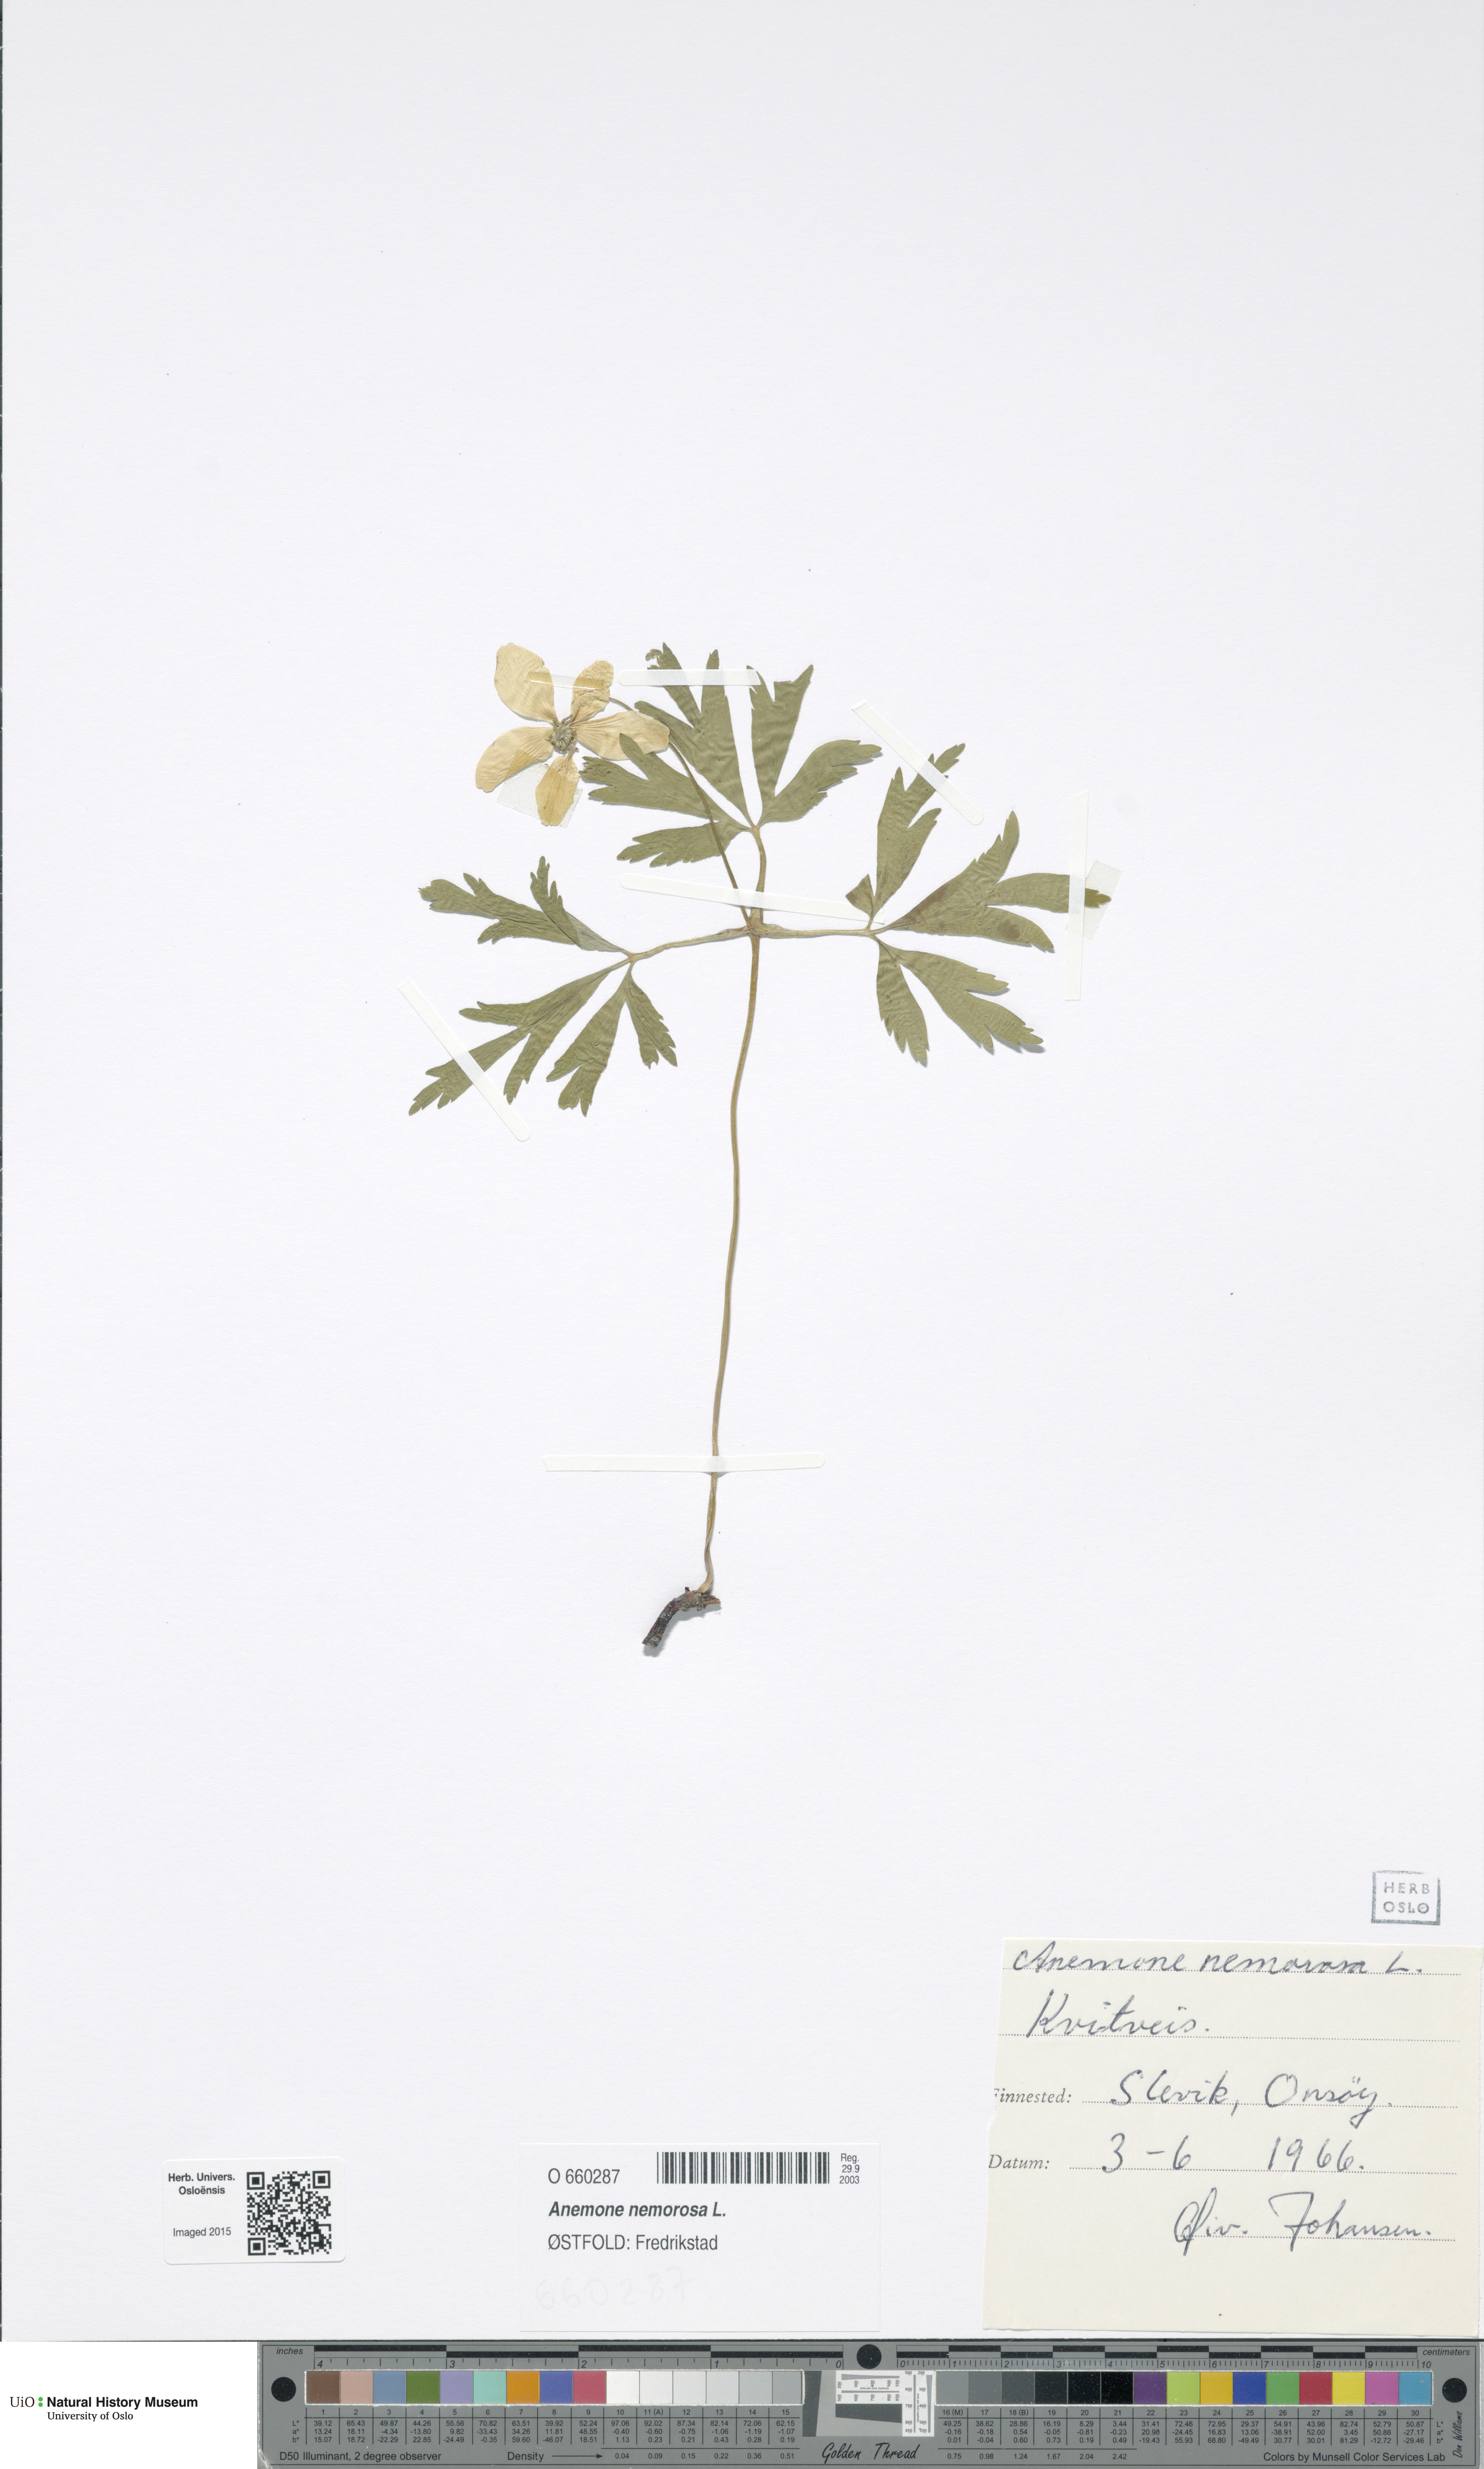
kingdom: Plantae
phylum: Tracheophyta
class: Magnoliopsida
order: Ranunculales
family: Ranunculaceae
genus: Anemone
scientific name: Anemone nemorosa
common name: Wood anemone
